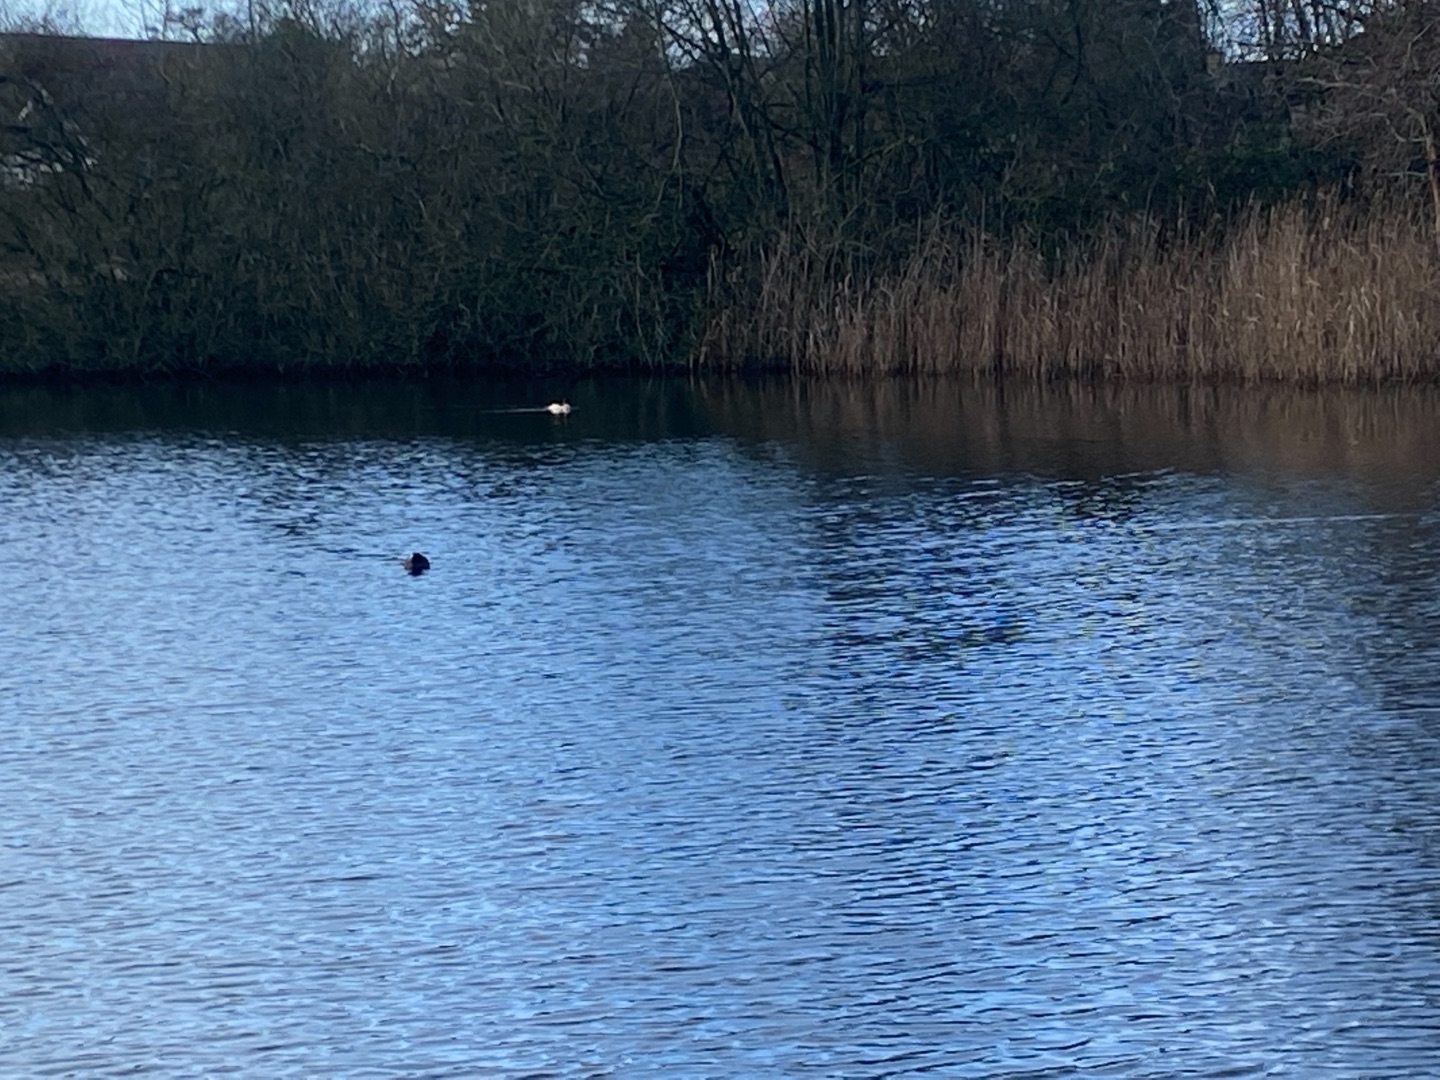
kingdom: Animalia
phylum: Chordata
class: Aves
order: Anseriformes
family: Anatidae
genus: Mergus
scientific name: Mergus merganser
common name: Stor skallesluger
